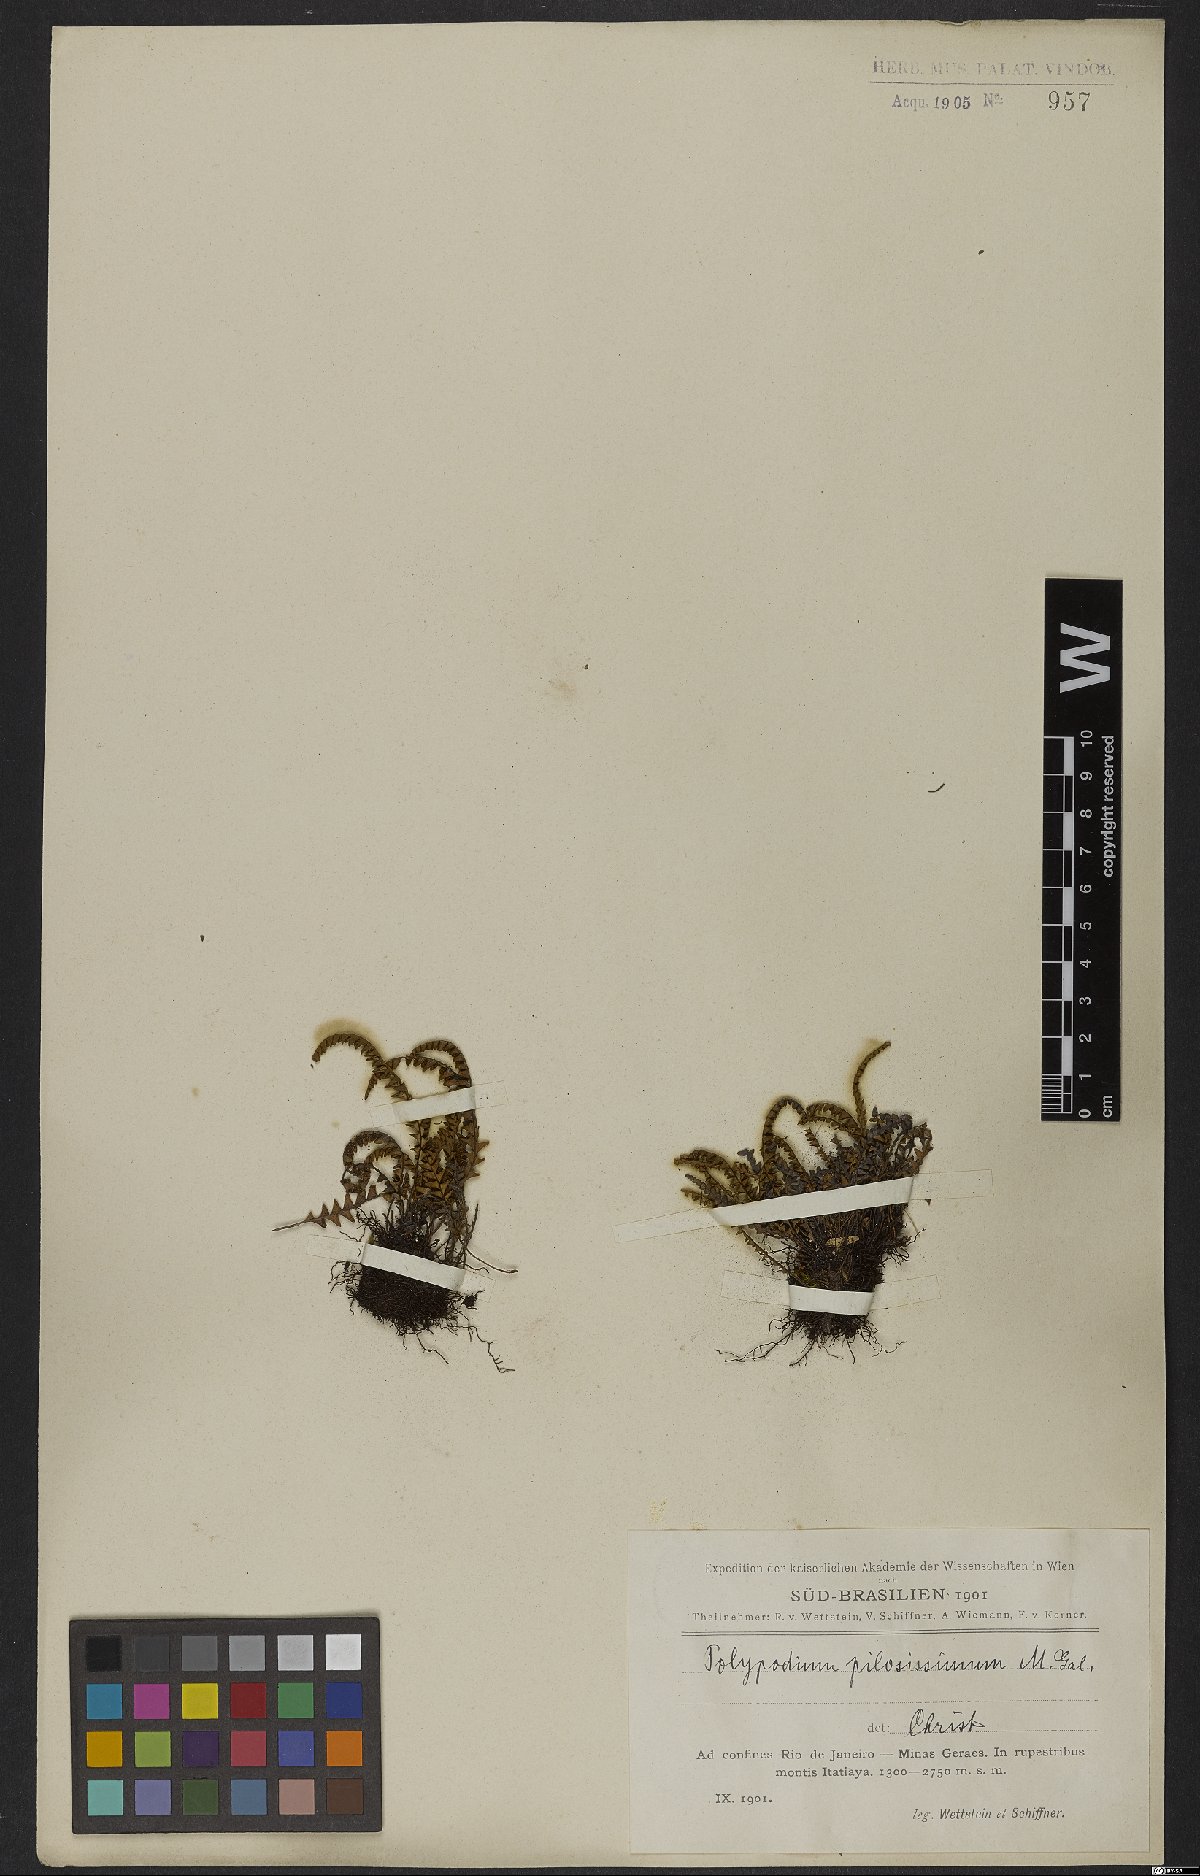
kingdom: Plantae
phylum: Tracheophyta
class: Polypodiopsida
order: Polypodiales
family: Polypodiaceae
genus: Melpomene
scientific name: Melpomene pilosissima
